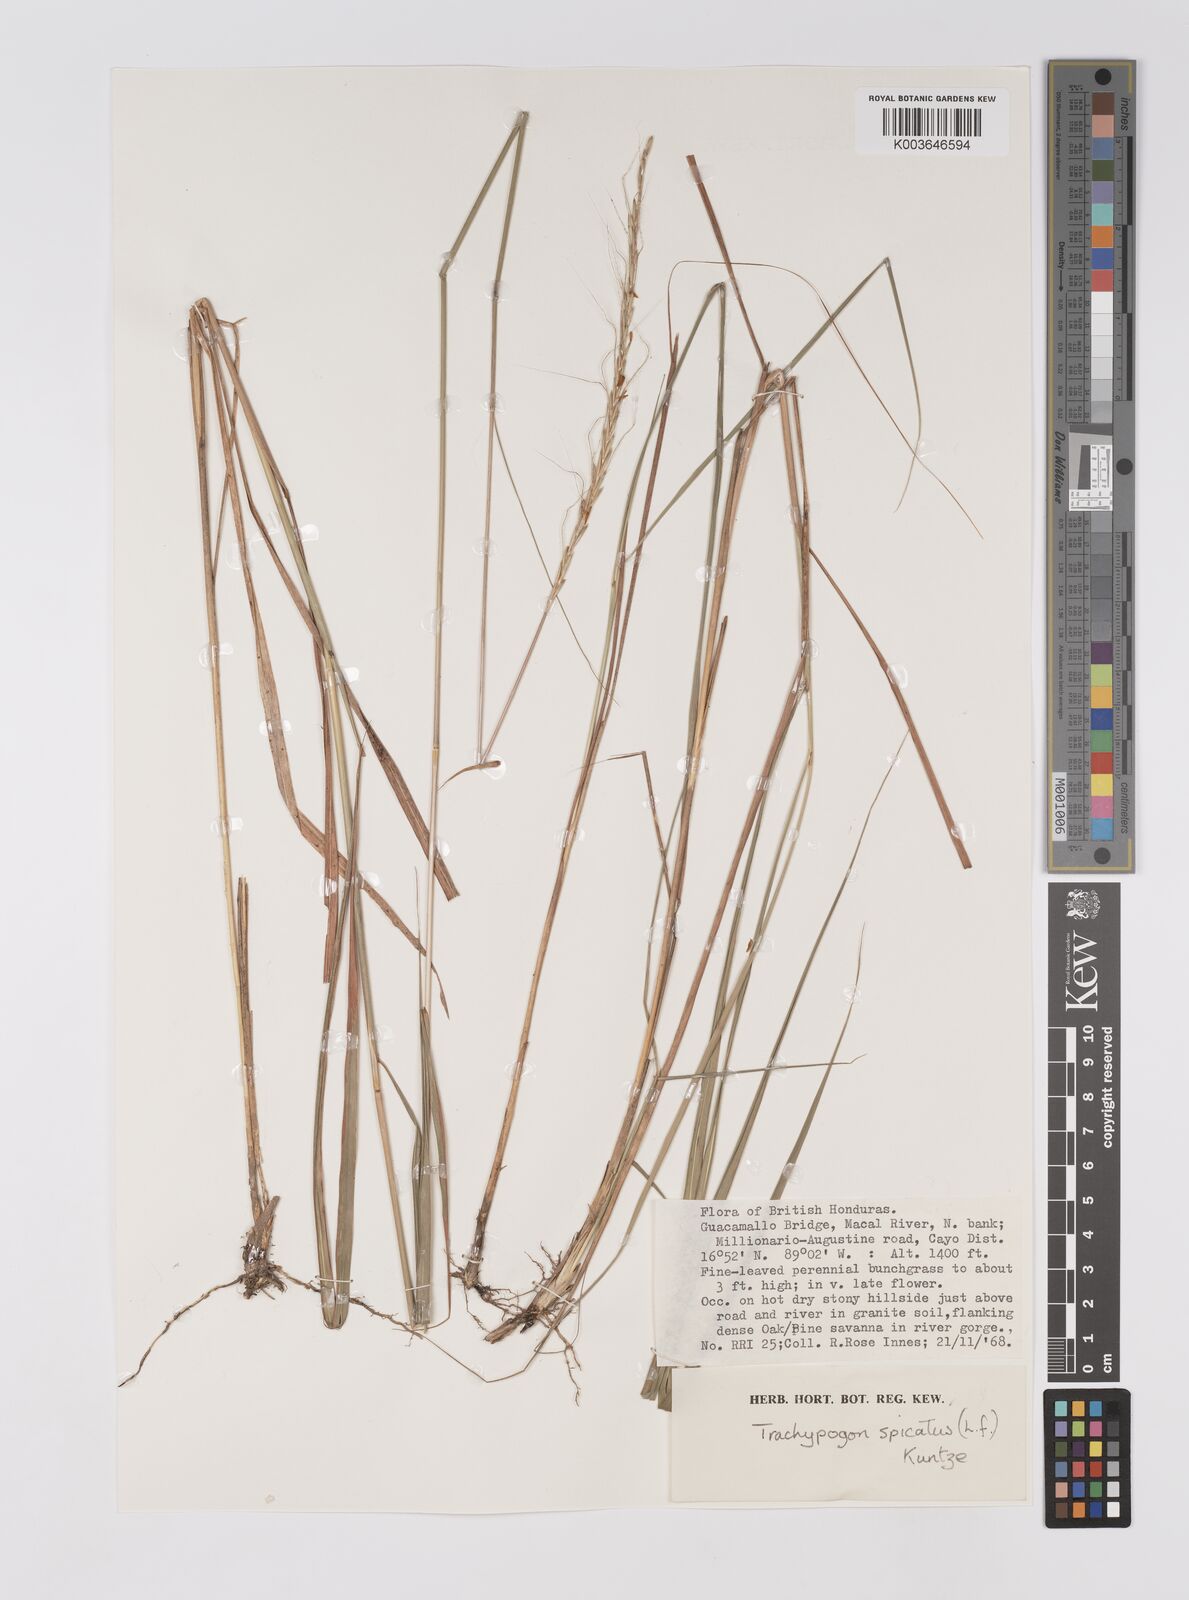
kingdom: Plantae
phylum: Tracheophyta
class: Liliopsida
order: Poales
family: Poaceae
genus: Trachypogon
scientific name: Trachypogon spicatus
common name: Crinkle-awn
